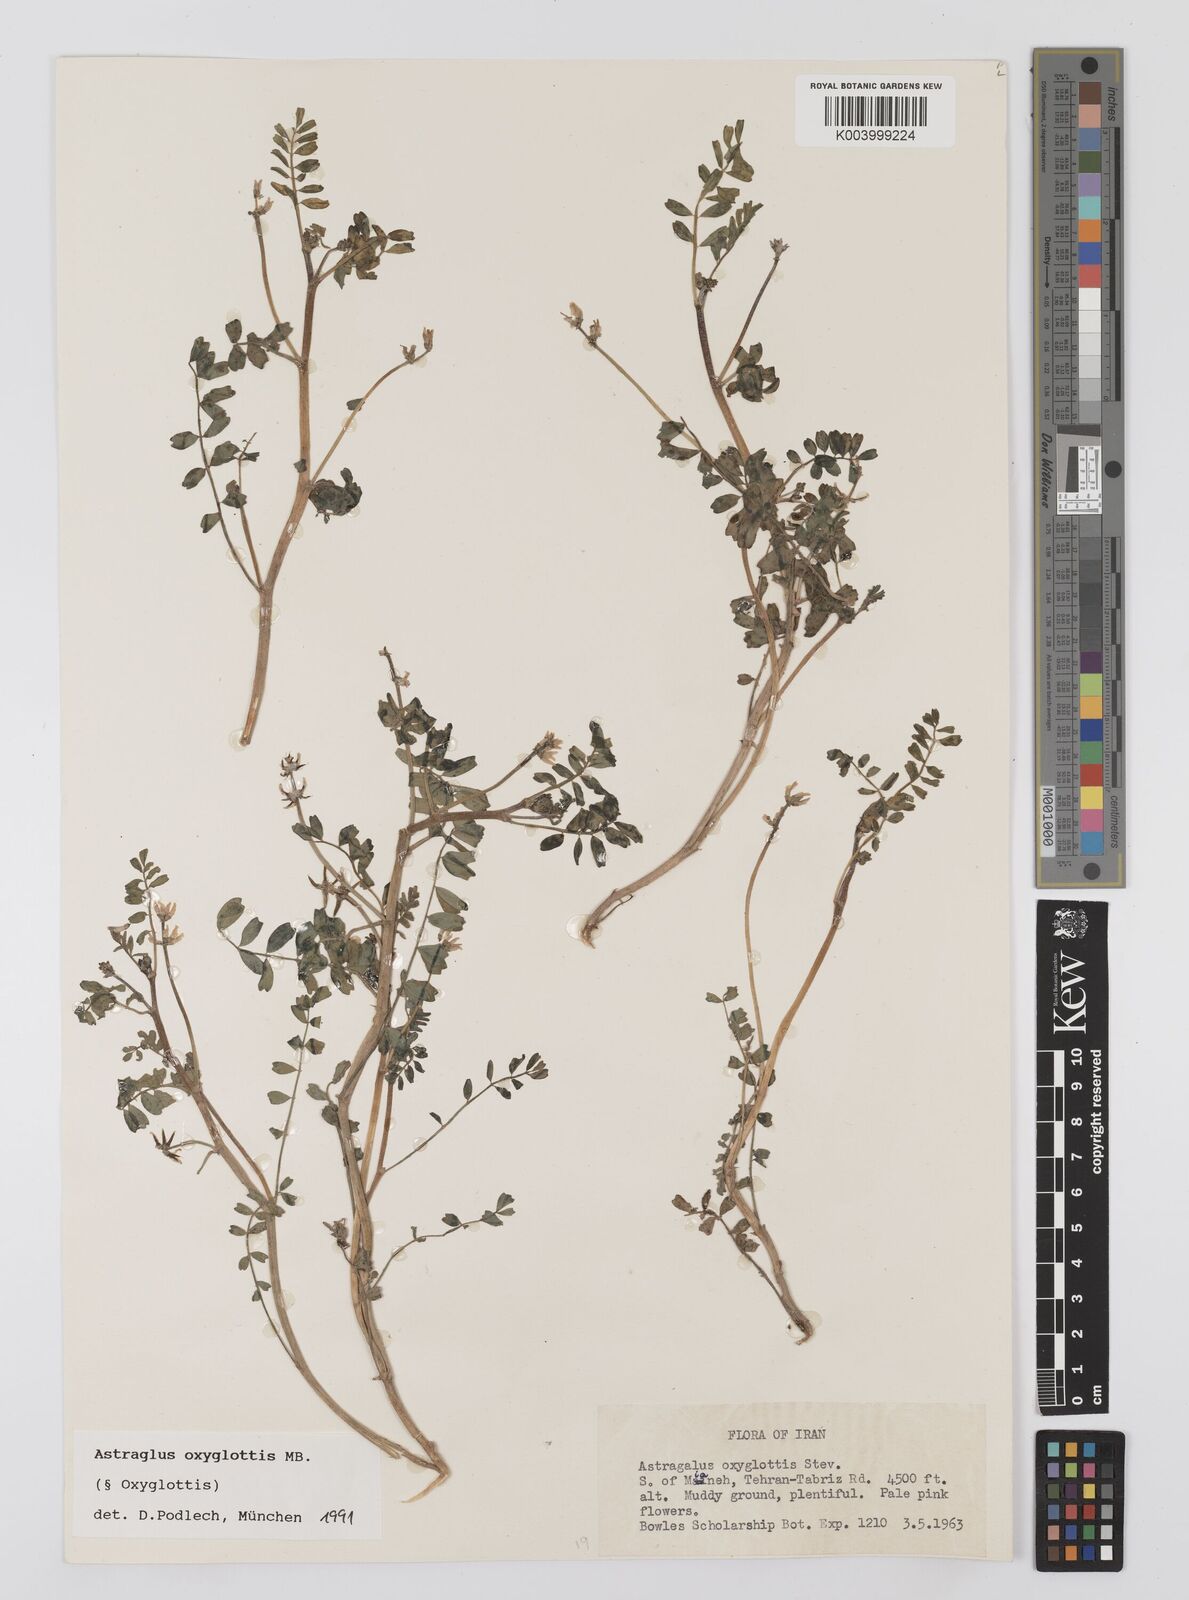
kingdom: Plantae
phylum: Tracheophyta
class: Magnoliopsida
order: Fabales
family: Fabaceae
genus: Astragalus
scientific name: Astragalus oxyglottis
